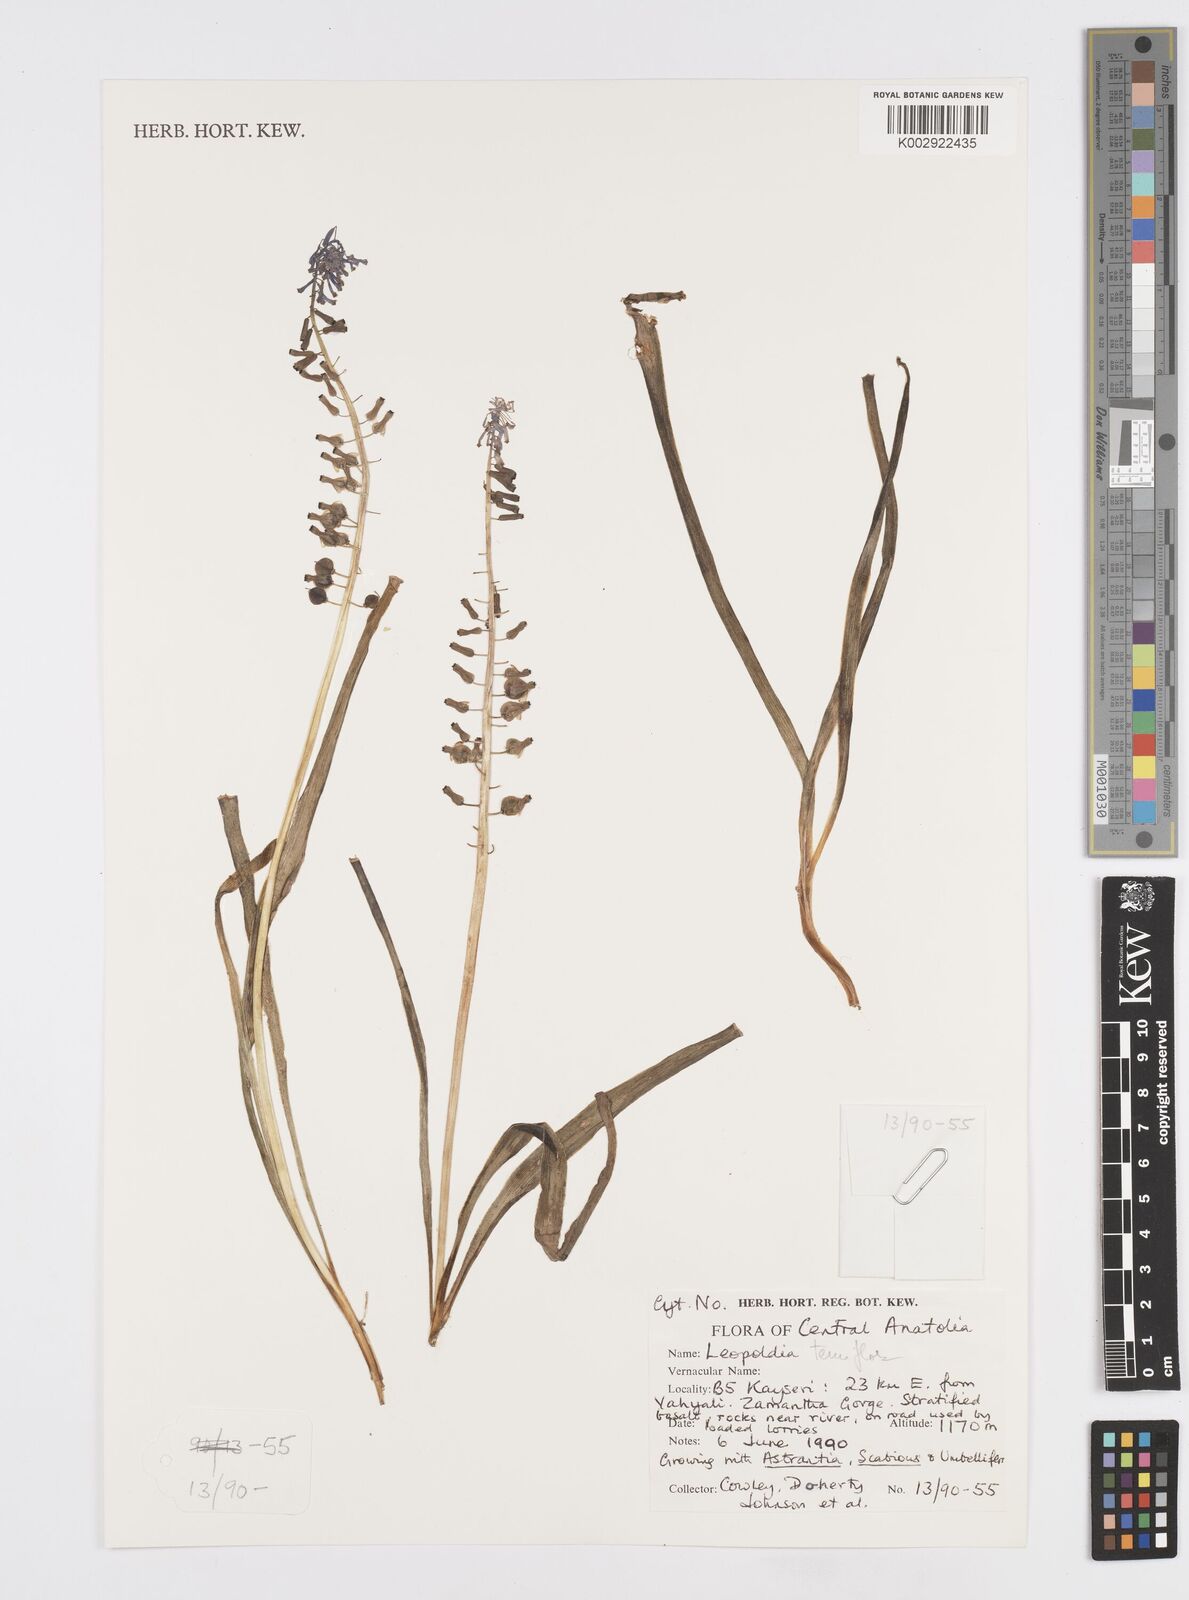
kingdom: Plantae
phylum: Tracheophyta
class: Liliopsida
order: Asparagales
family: Asparagaceae
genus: Muscari
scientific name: Muscari tenuiflorum
